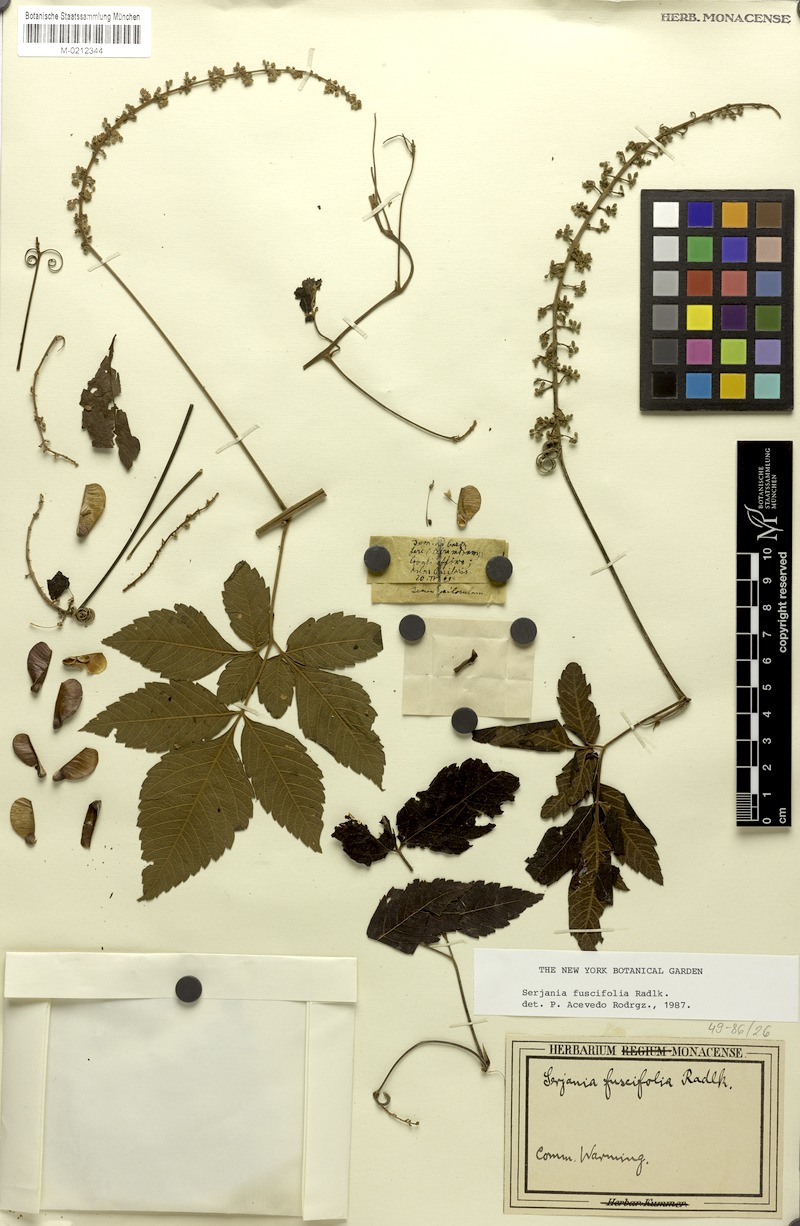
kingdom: Plantae
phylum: Tracheophyta
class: Magnoliopsida
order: Sapindales
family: Sapindaceae
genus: Serjania
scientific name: Serjania fuscifolia
